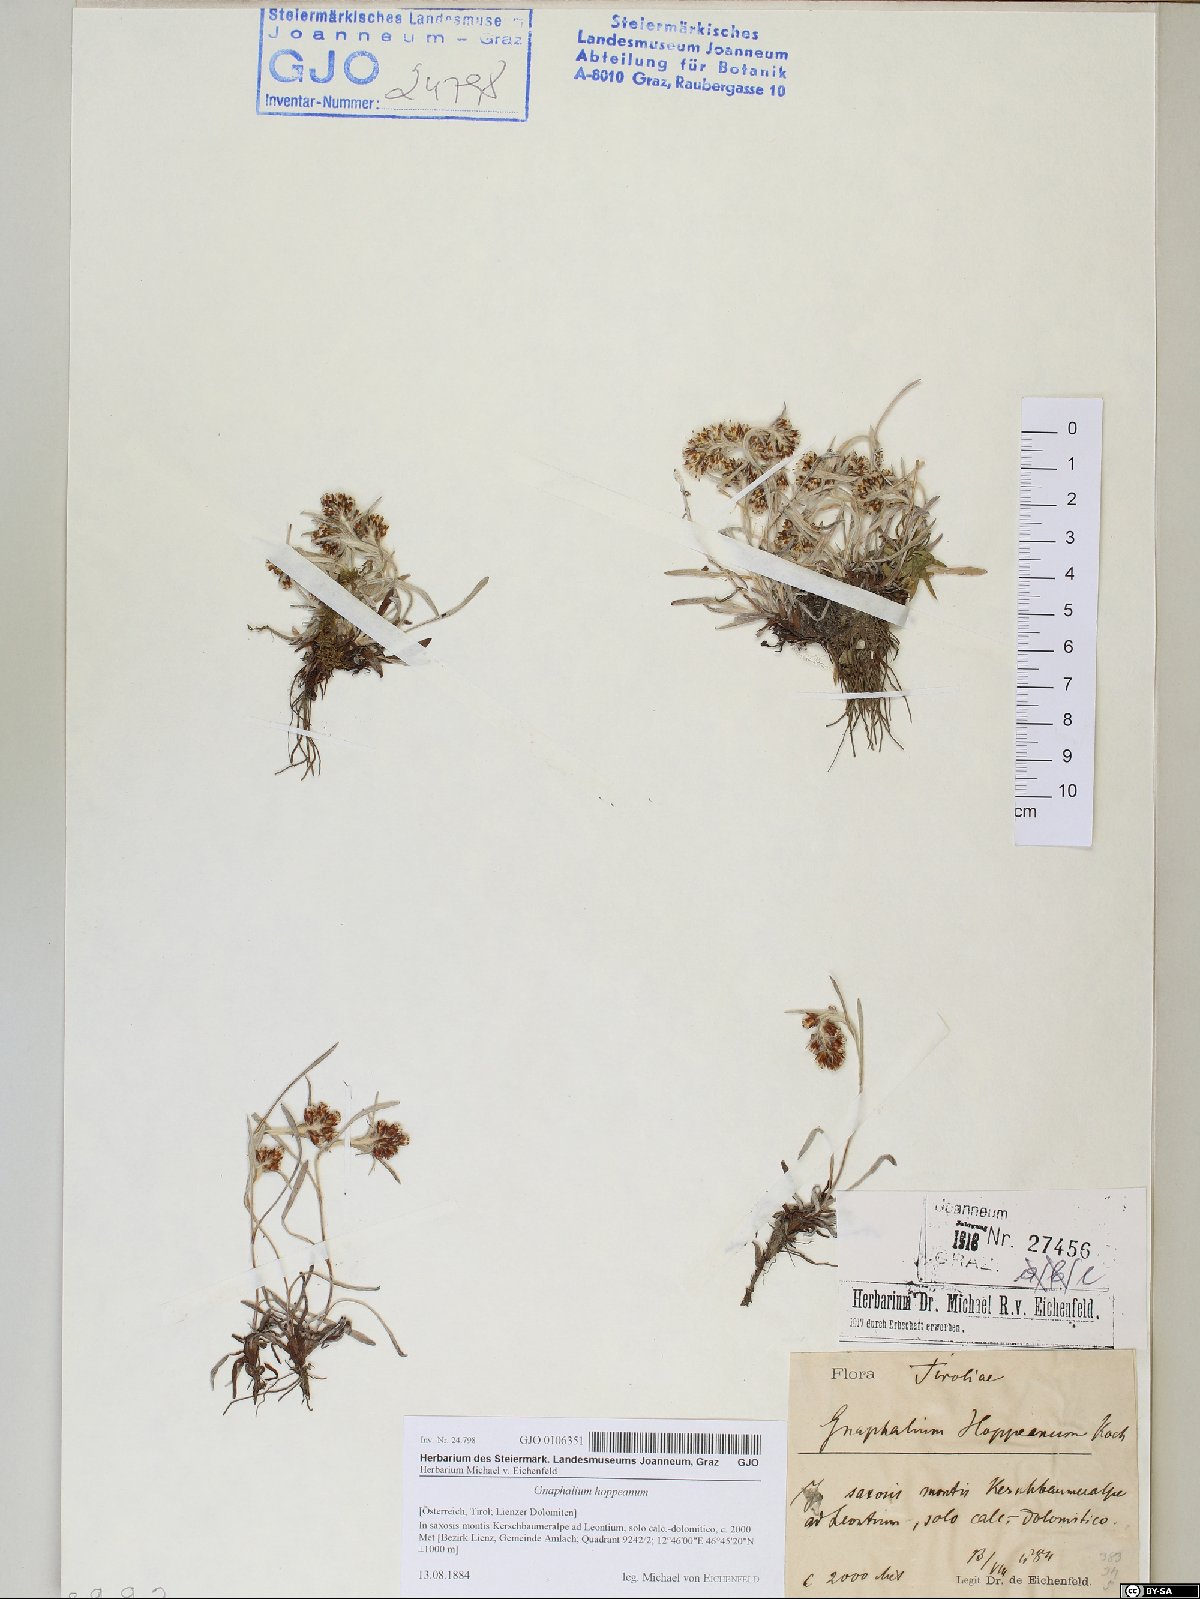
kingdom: Plantae
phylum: Tracheophyta
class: Magnoliopsida
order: Asterales
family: Asteraceae
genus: Omalotheca
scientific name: Omalotheca hoppeana
